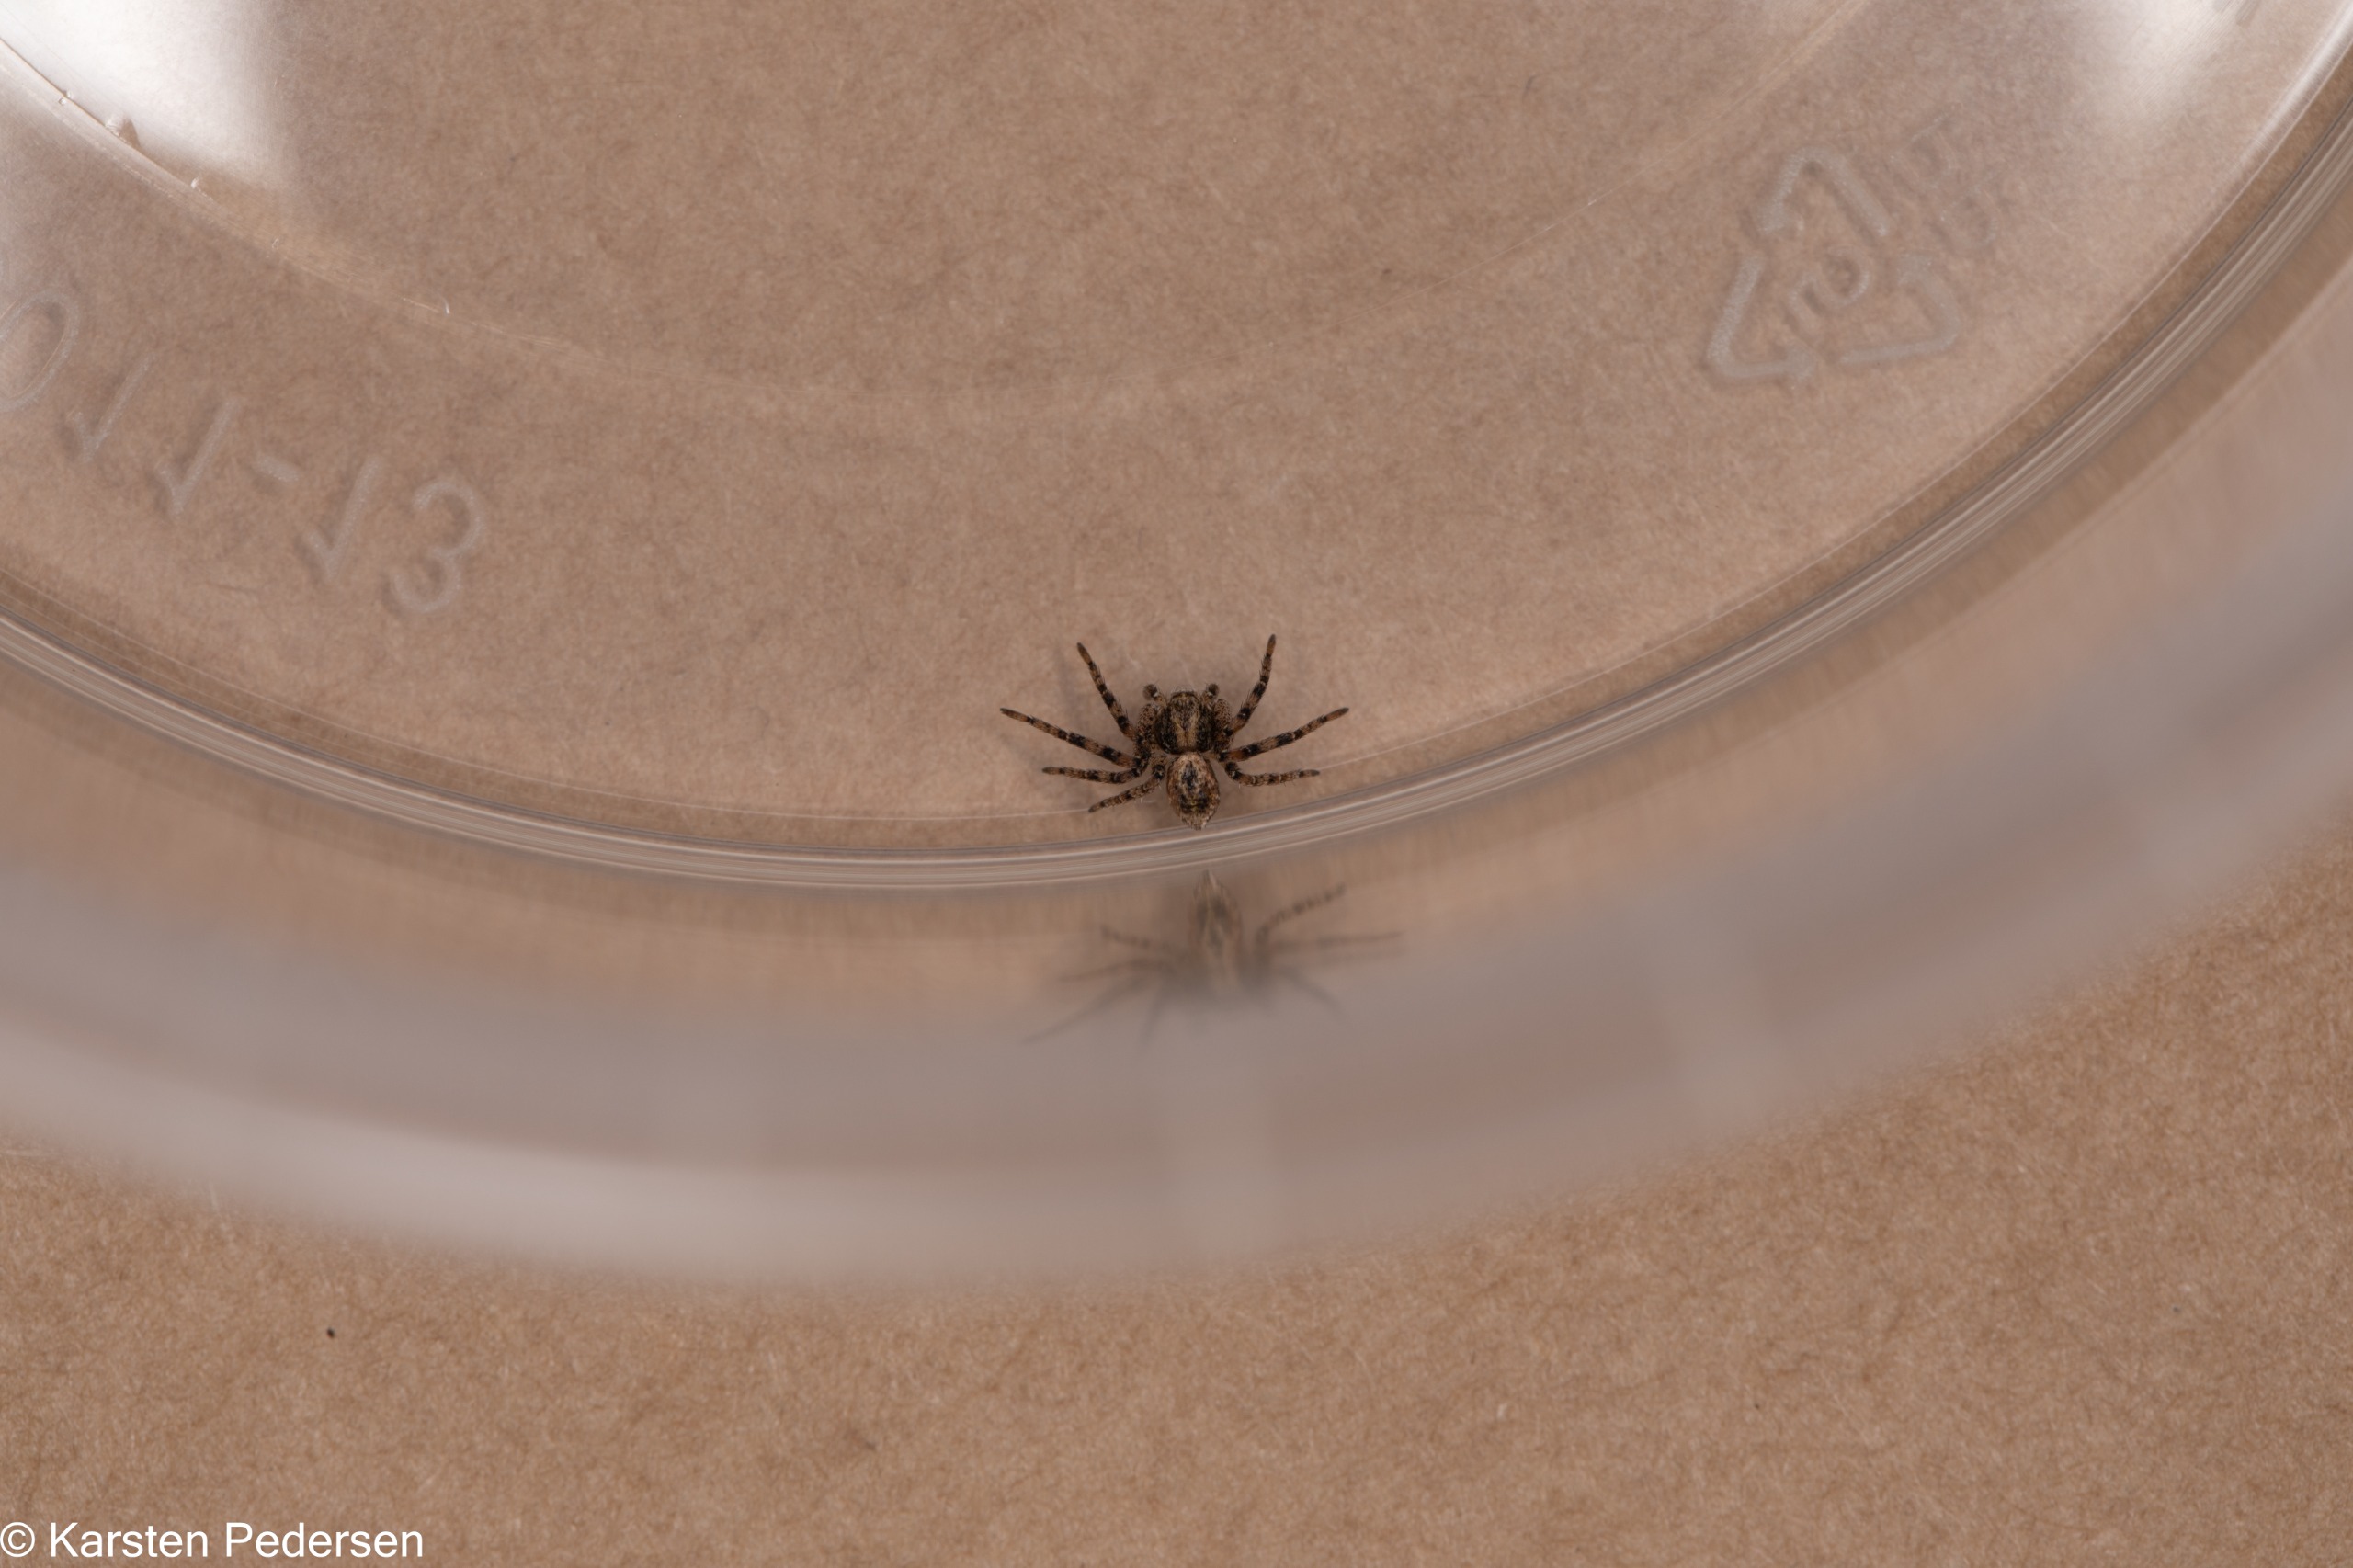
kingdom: Animalia
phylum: Arthropoda
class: Arachnida
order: Araneae
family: Philodromidae
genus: Philodromus
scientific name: Philodromus
